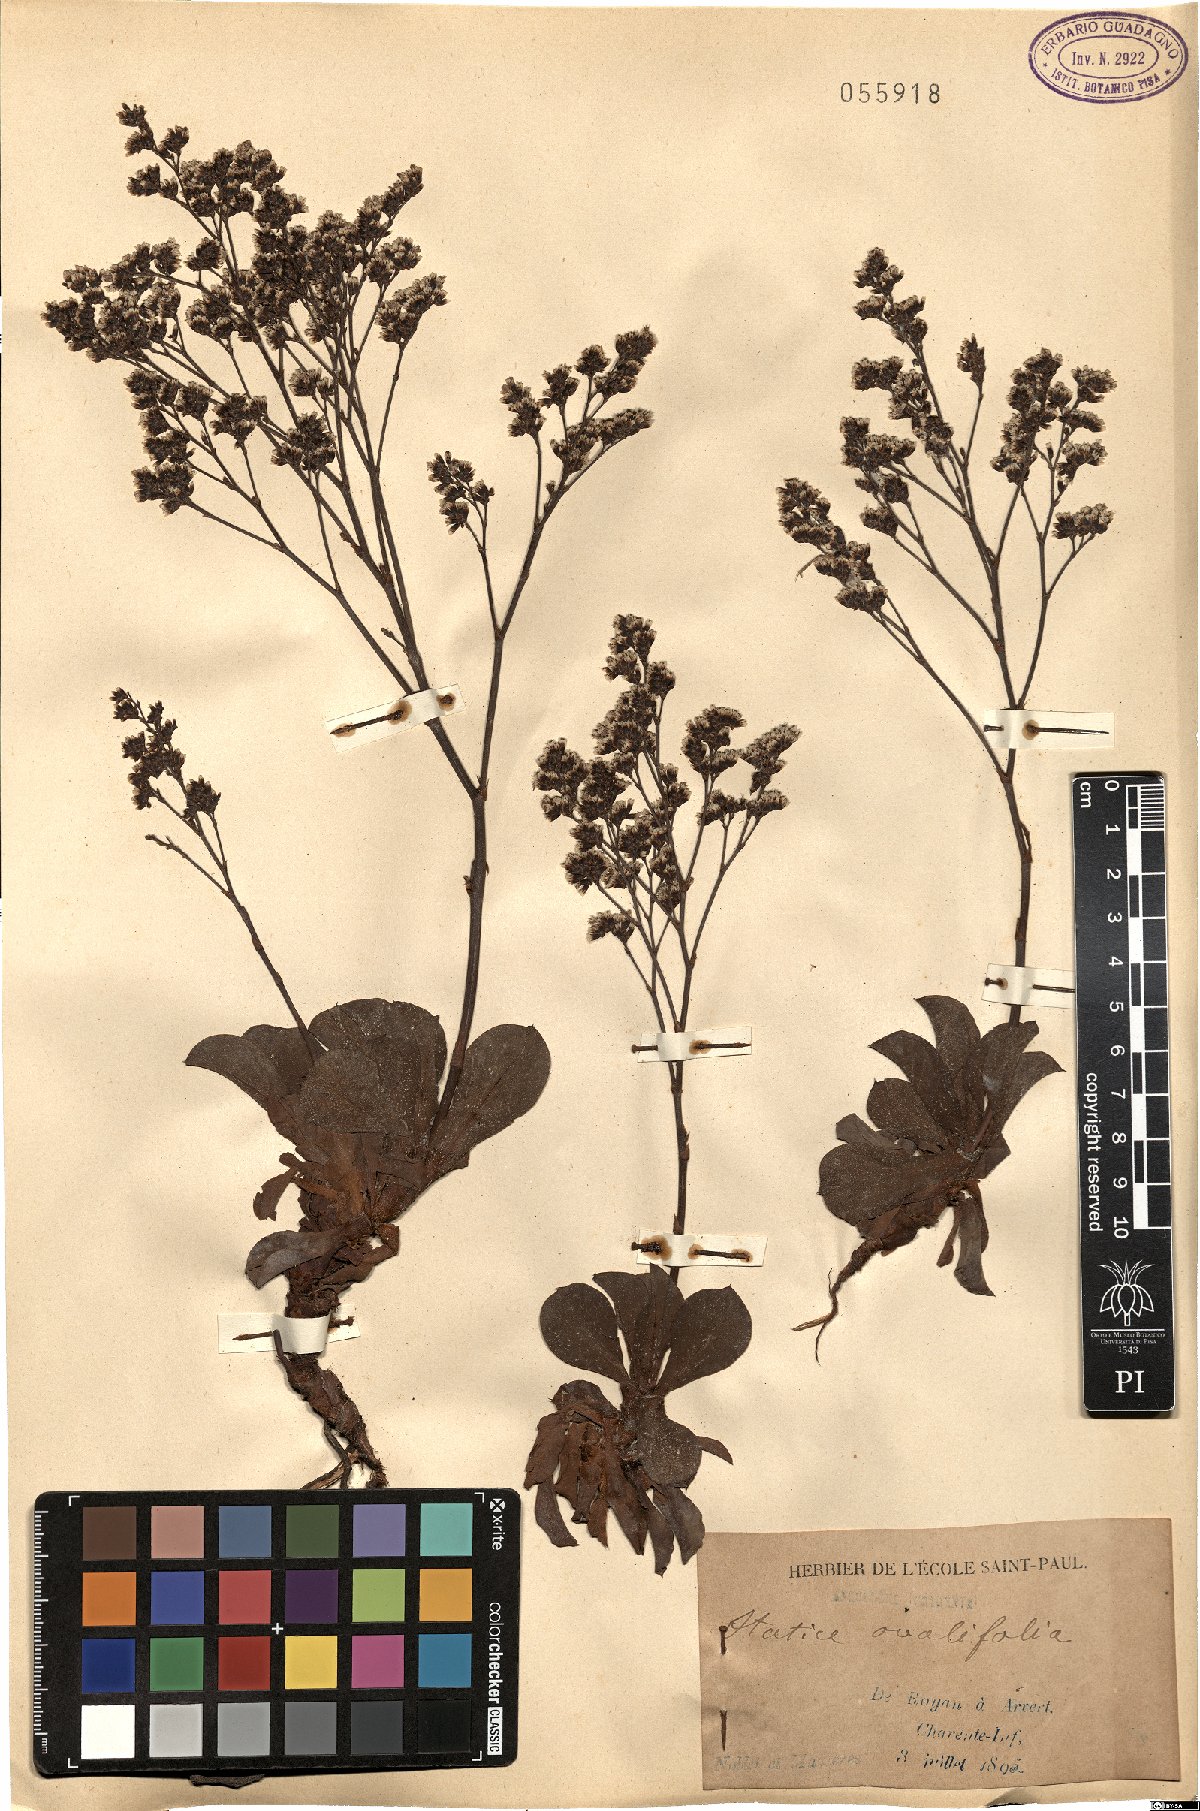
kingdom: Plantae
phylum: Tracheophyta
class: Magnoliopsida
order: Caryophyllales
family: Plumbaginaceae
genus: Limonium
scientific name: Limonium ovalifolium
